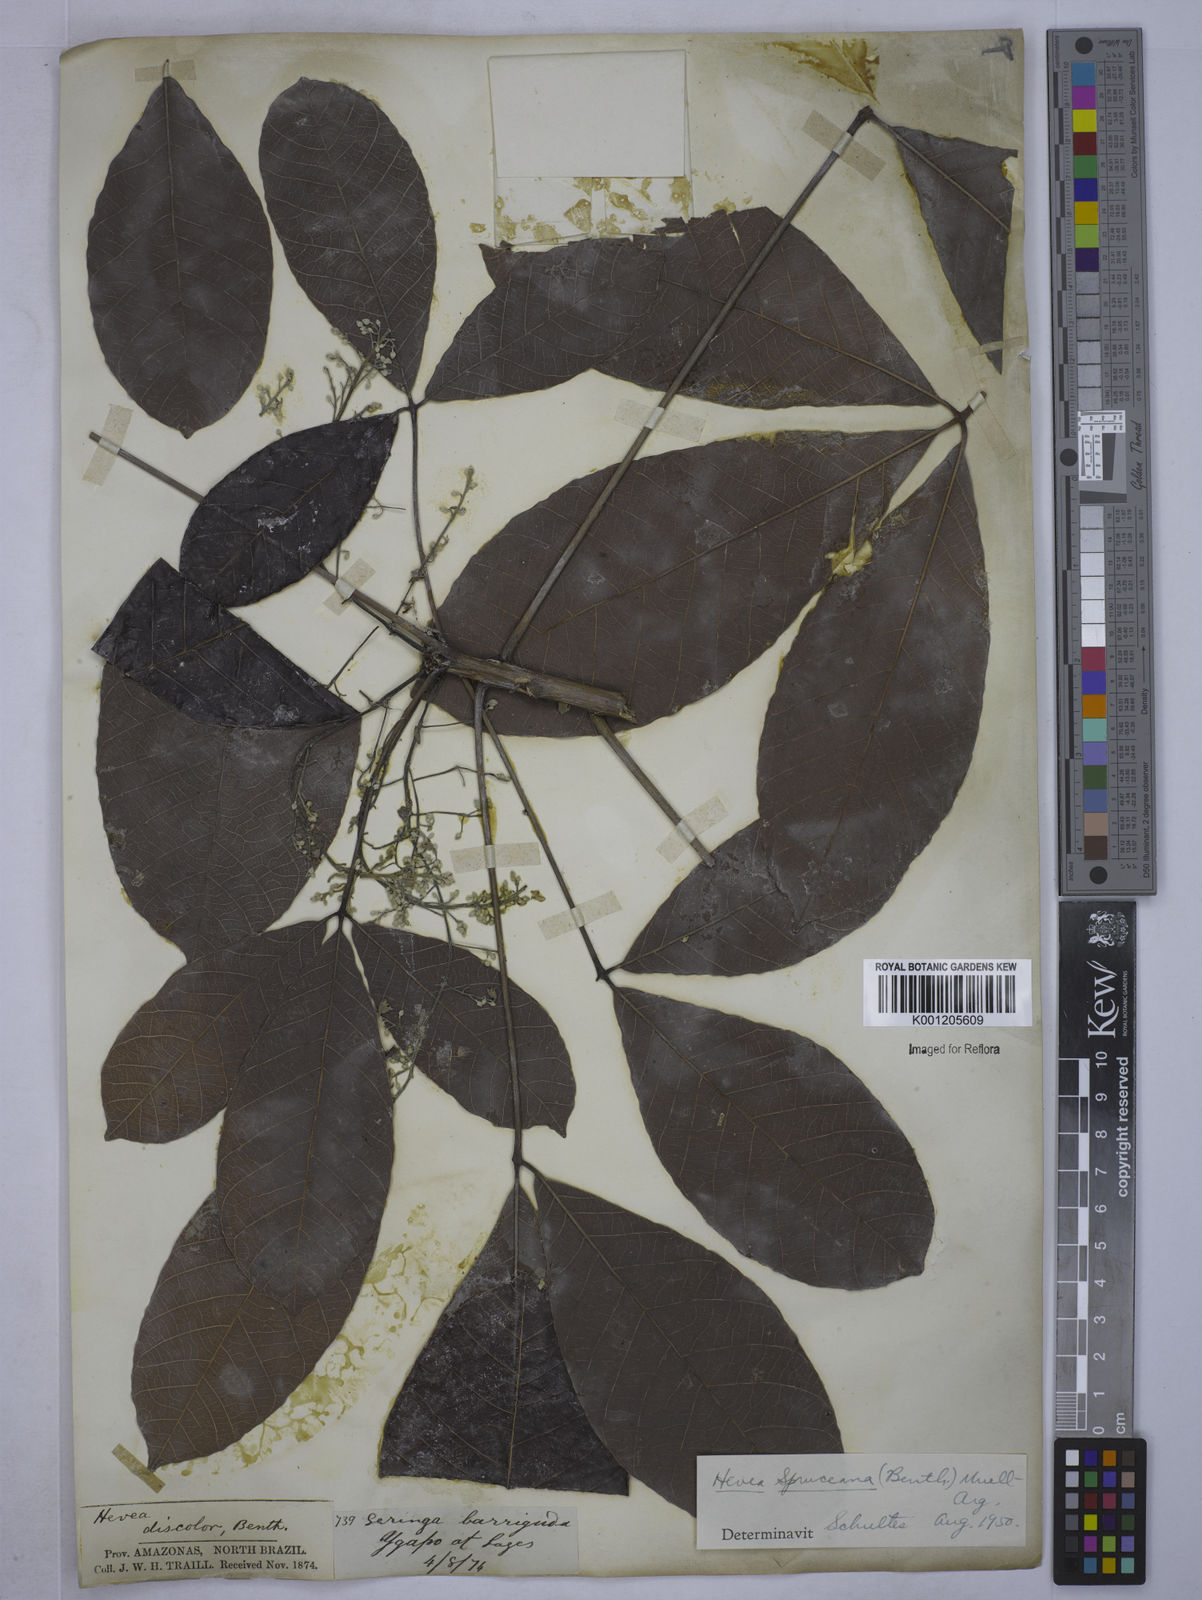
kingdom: Plantae
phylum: Tracheophyta
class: Magnoliopsida
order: Malpighiales
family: Euphorbiaceae
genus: Hevea
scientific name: Hevea
